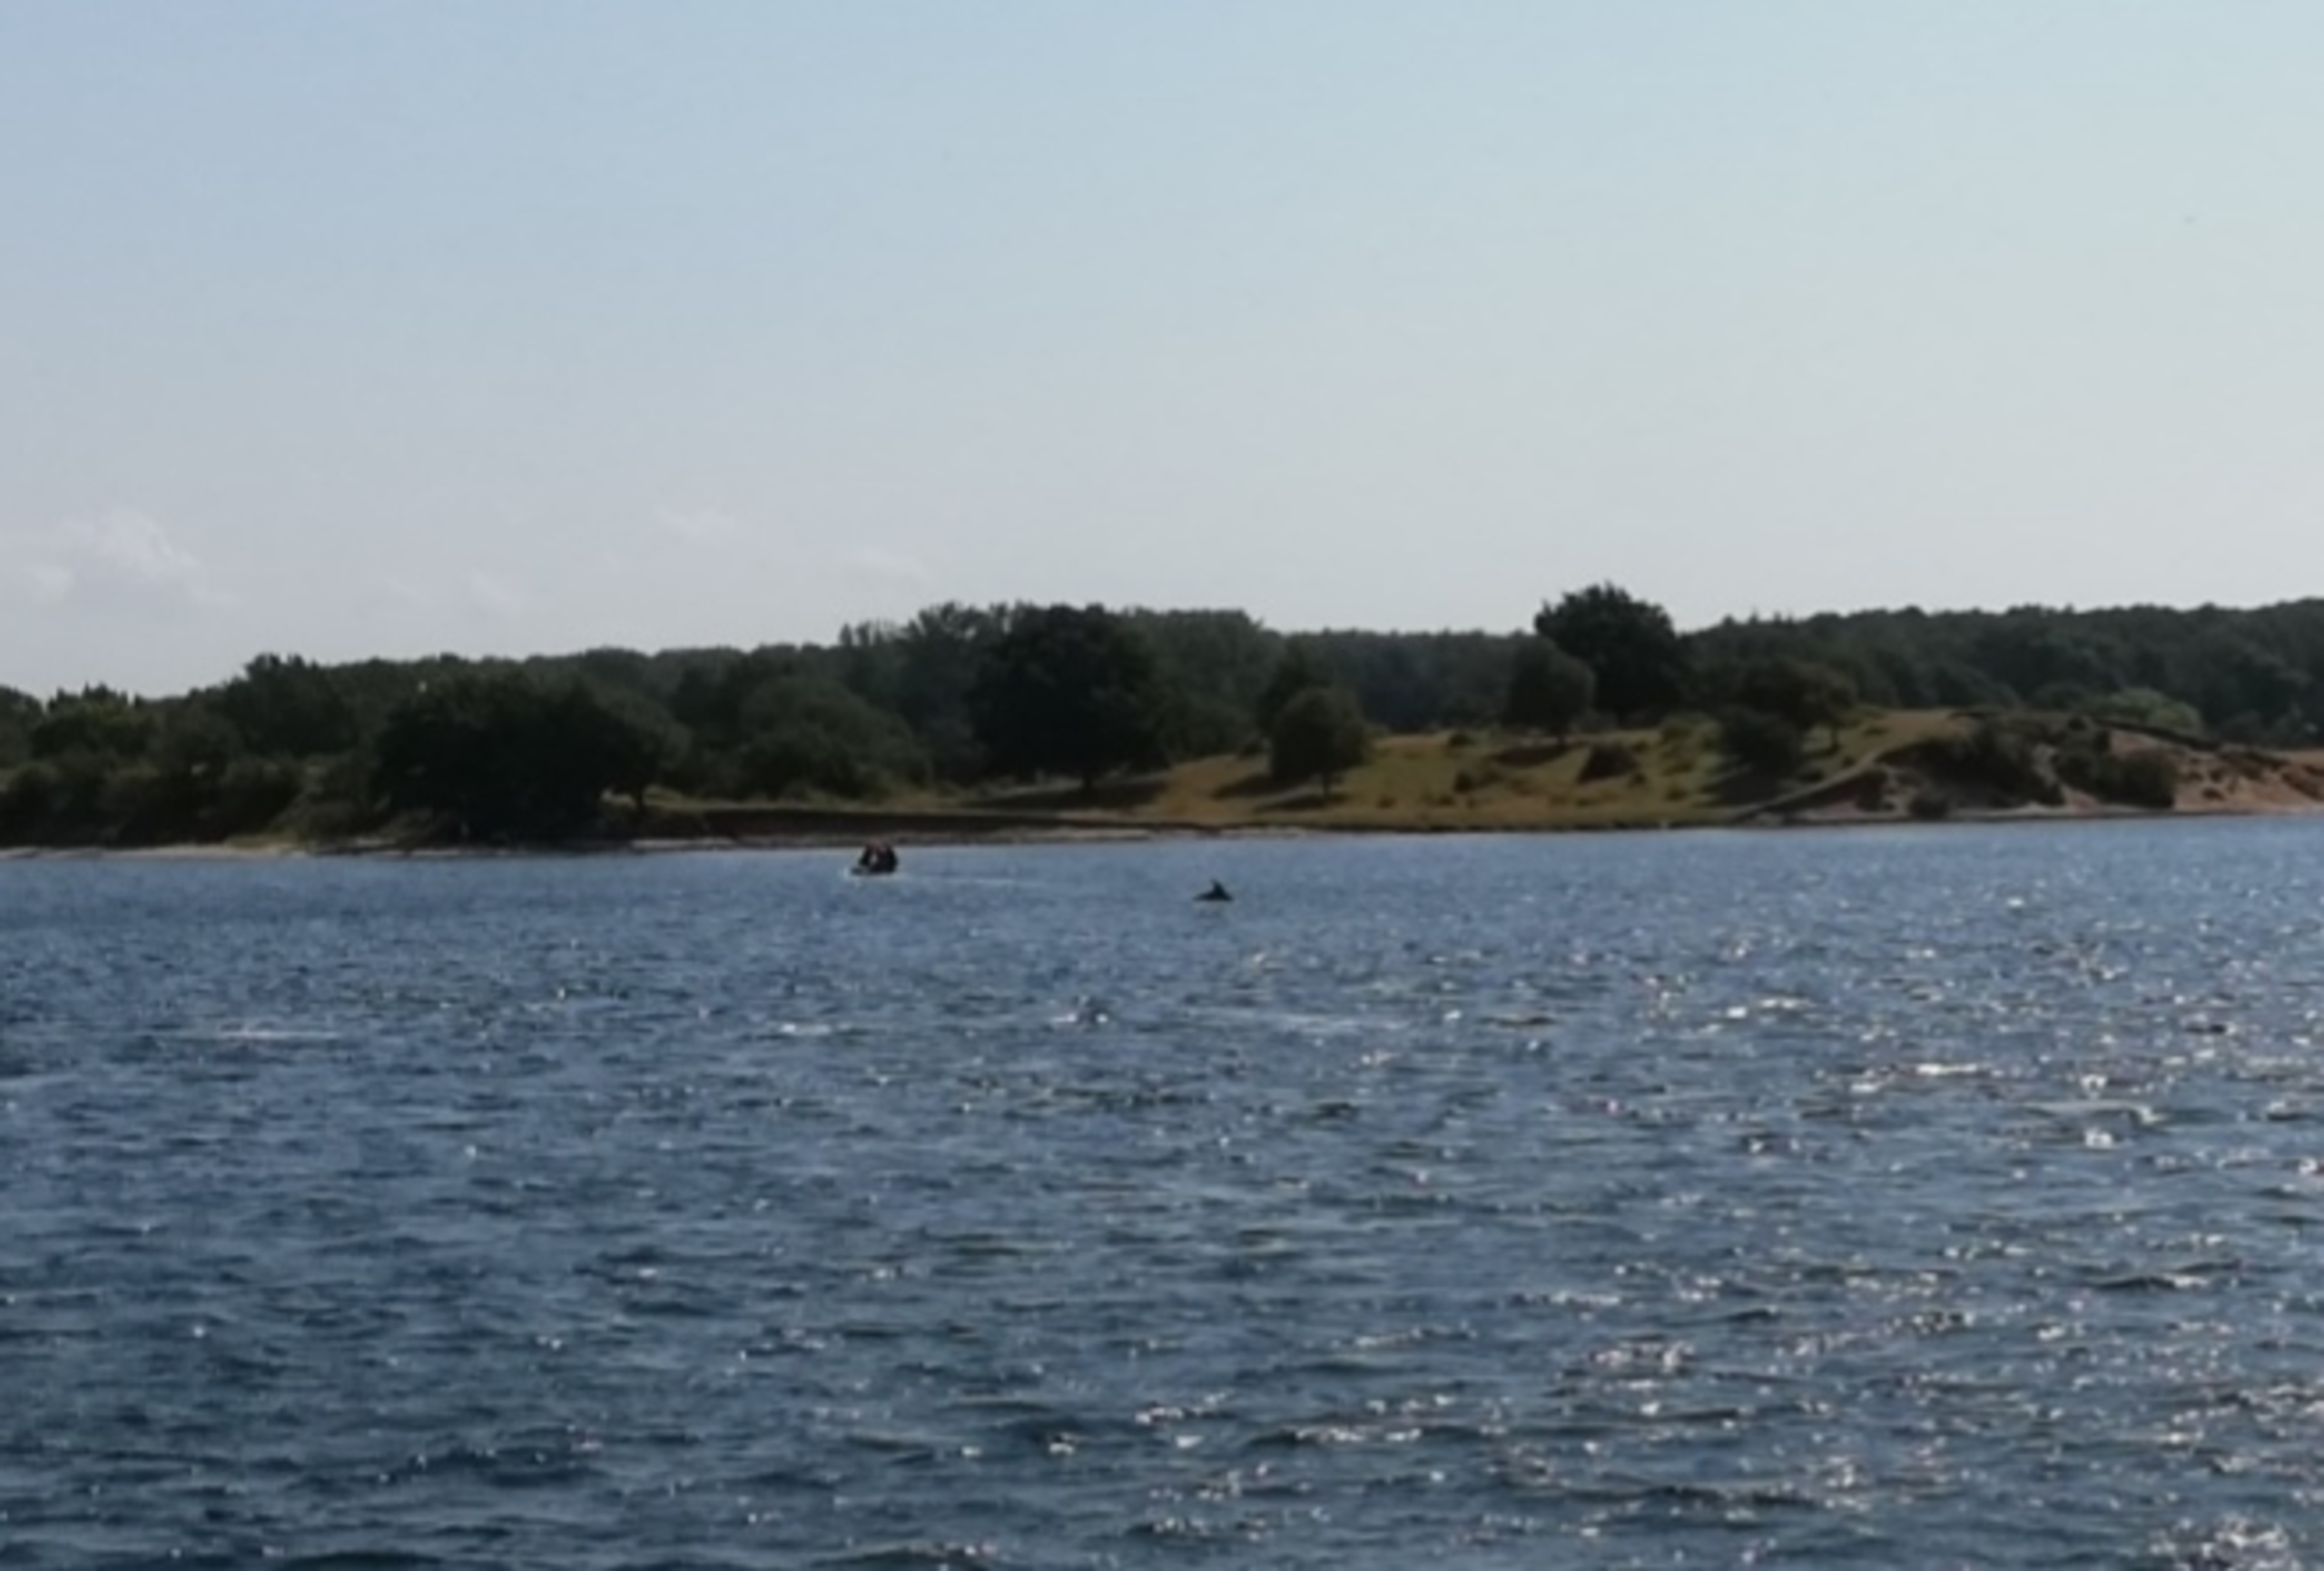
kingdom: Animalia
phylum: Chordata
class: Mammalia
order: Cetacea
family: Delphinidae
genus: Tursiops
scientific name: Tursiops truncatus
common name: Øresvin
